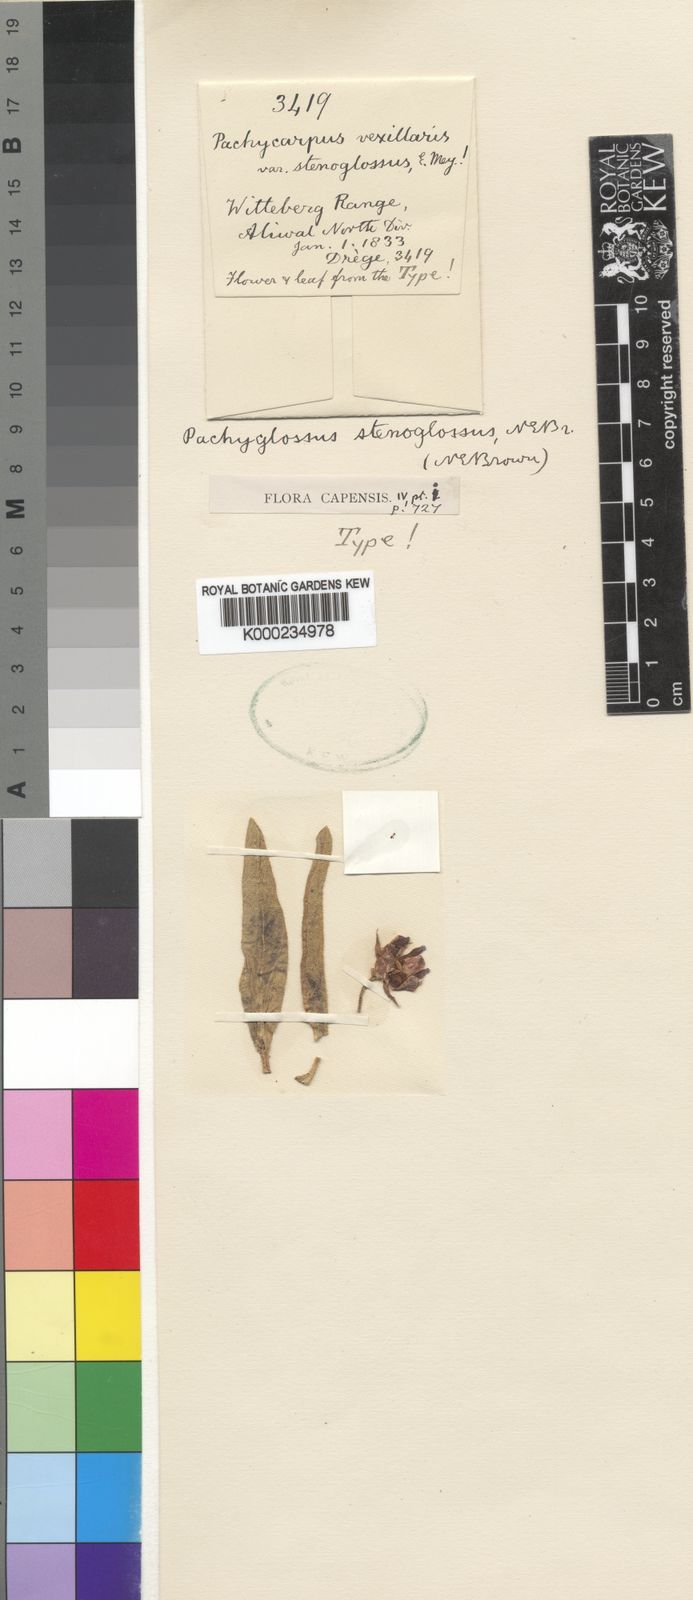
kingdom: Plantae
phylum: Tracheophyta
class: Magnoliopsida
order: Gentianales
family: Apocynaceae
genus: Pachycarpus
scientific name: Pachycarpus stenoglossus
